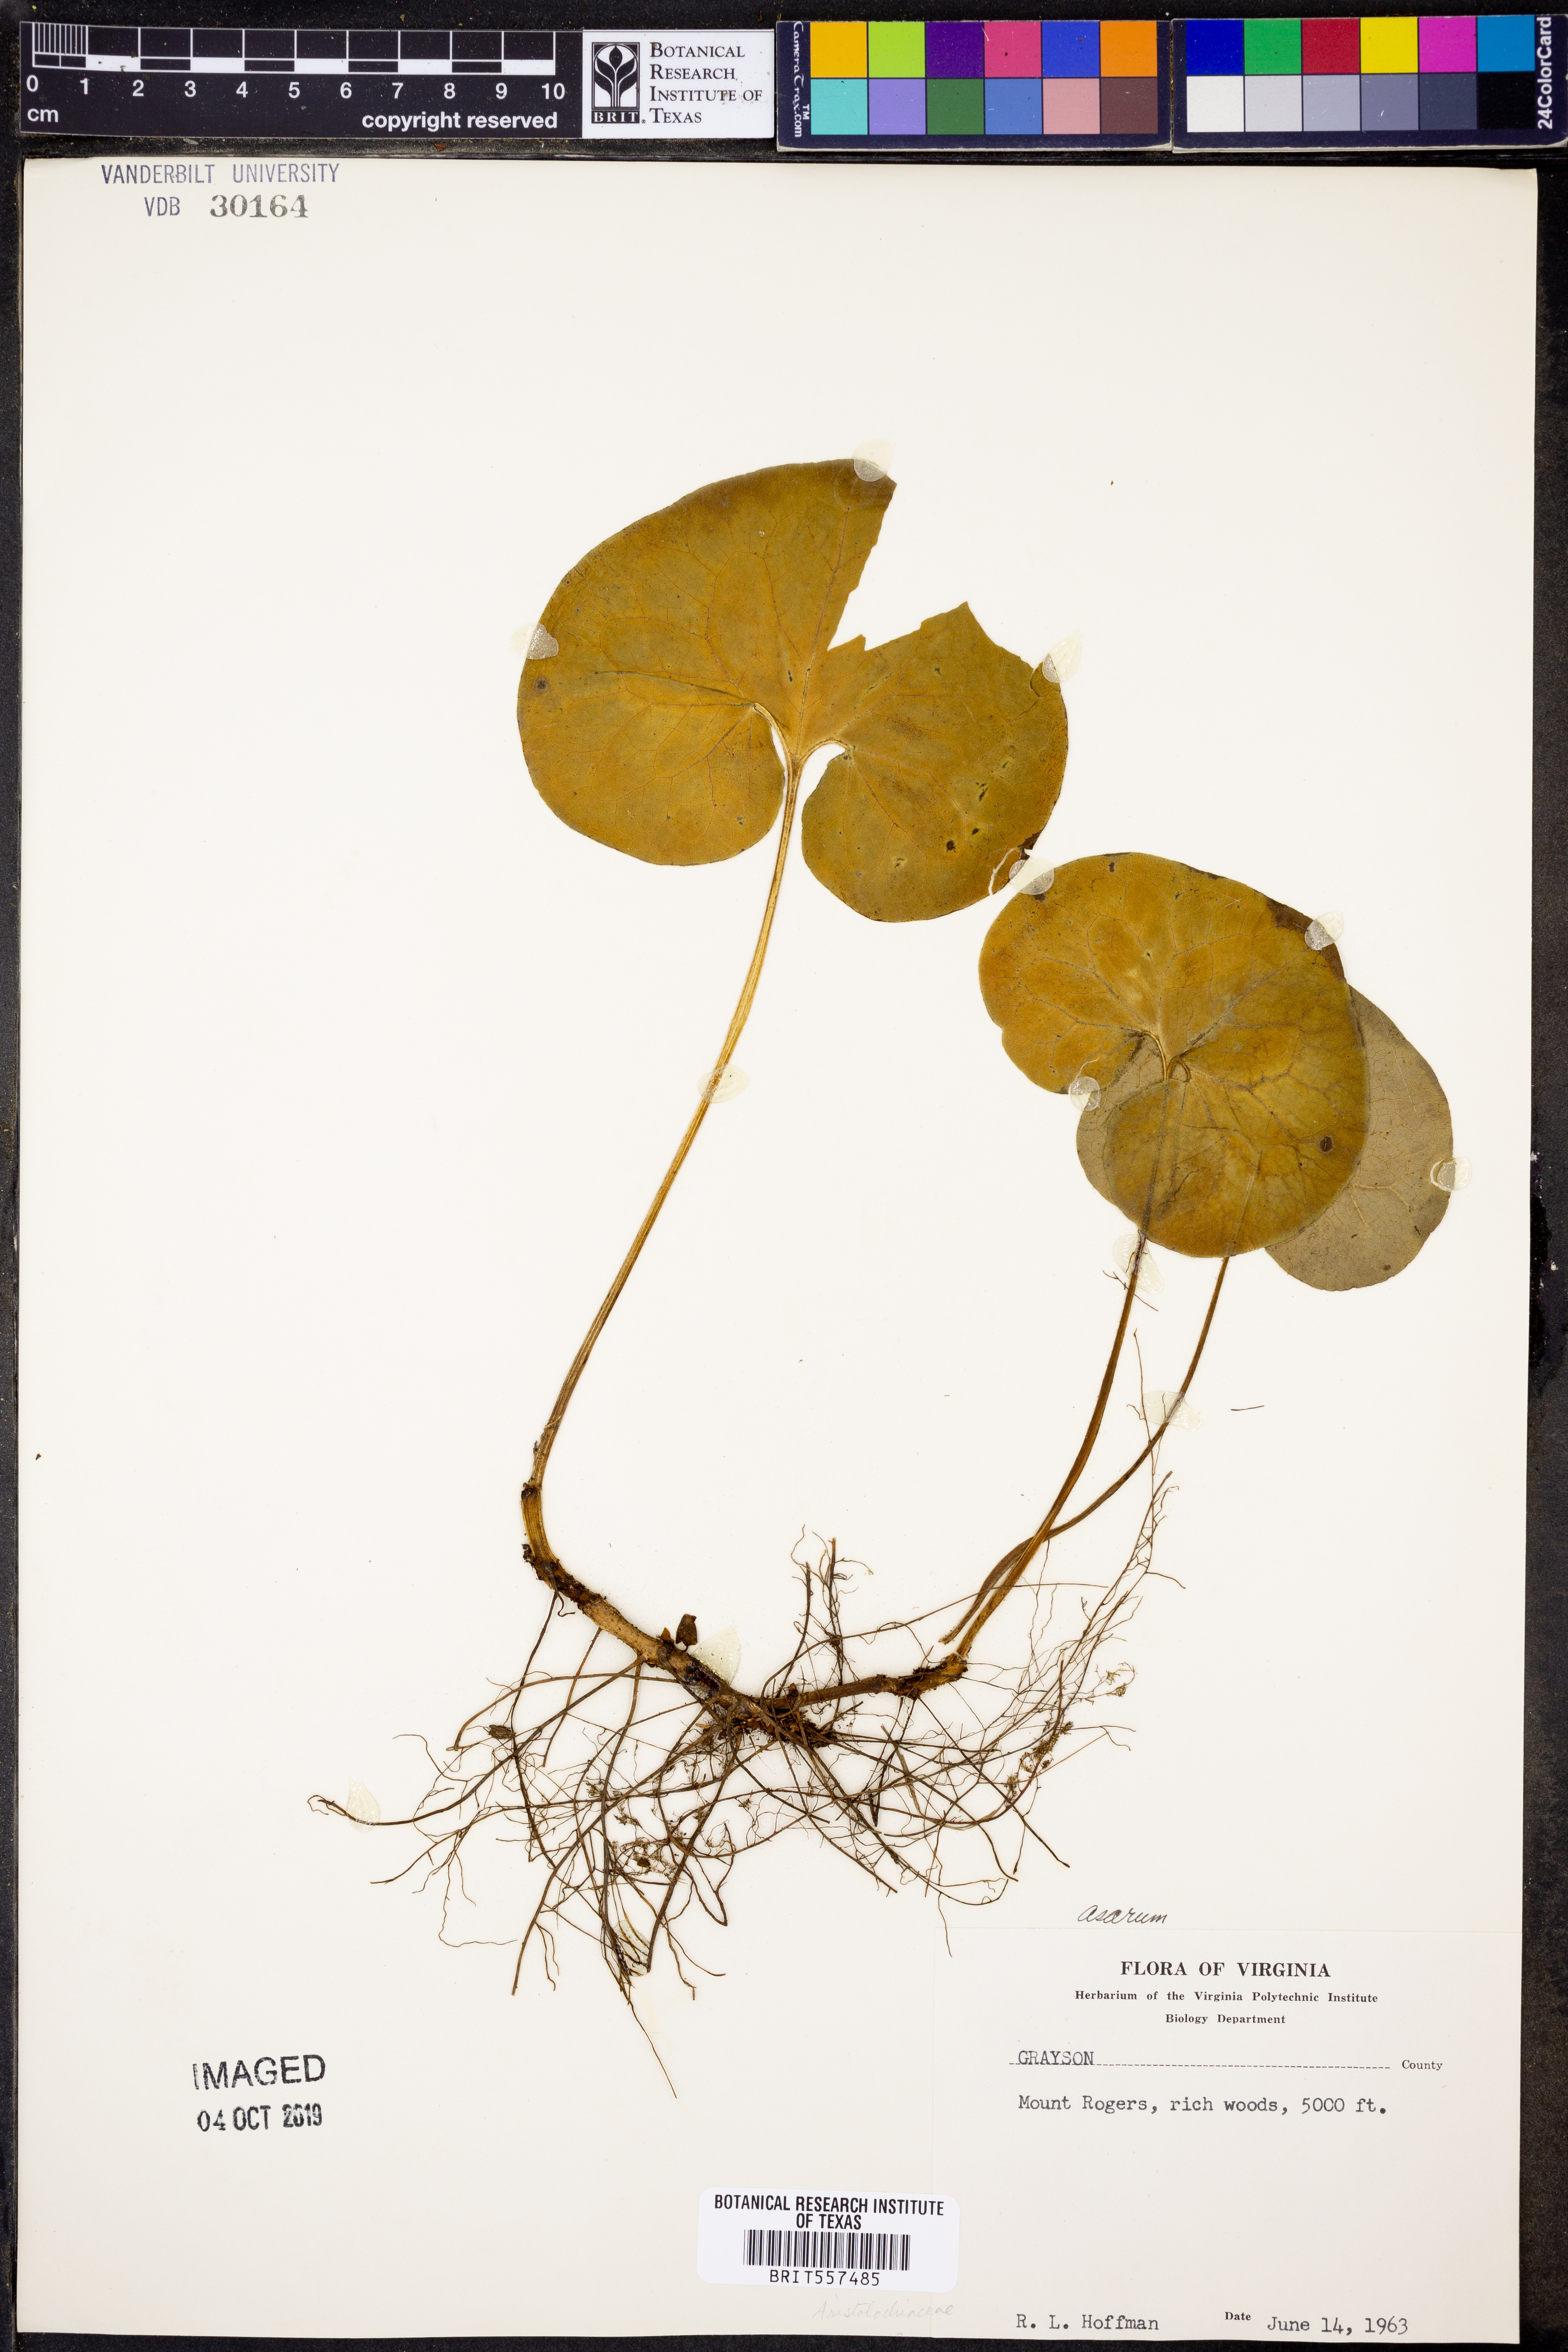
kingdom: Plantae
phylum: Tracheophyta
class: Magnoliopsida
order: Piperales
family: Aristolochiaceae
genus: Asarum
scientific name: Asarum
